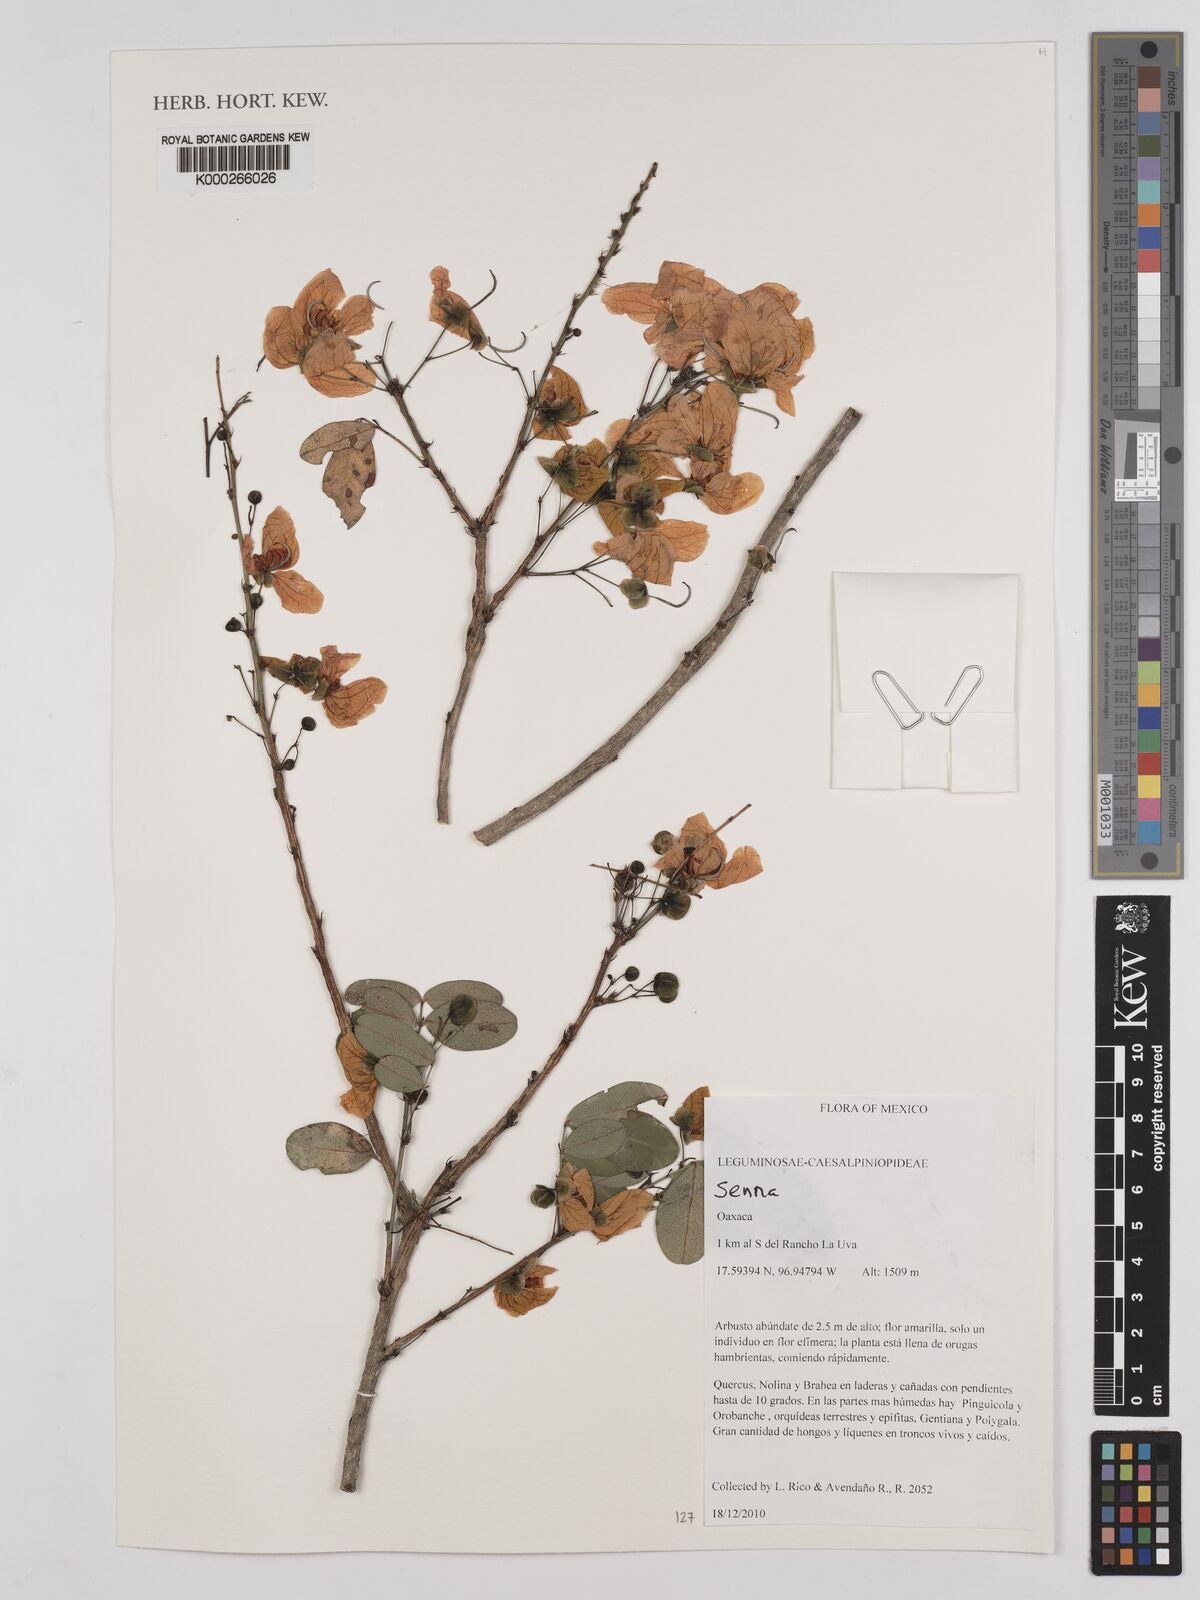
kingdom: Plantae
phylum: Tracheophyta
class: Magnoliopsida
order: Fabales
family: Fabaceae
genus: Senna
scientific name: Senna
